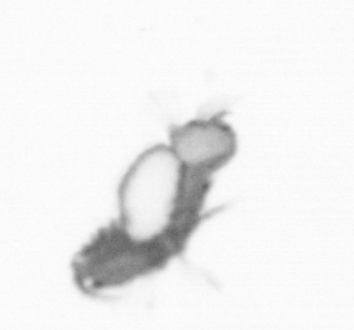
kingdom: Animalia
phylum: Annelida
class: Polychaeta
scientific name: Polychaeta
